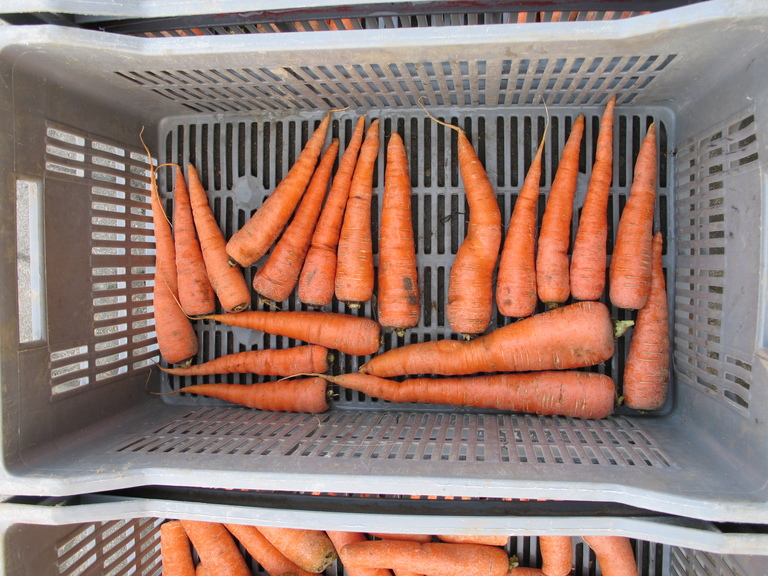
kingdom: Plantae
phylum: Tracheophyta
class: Magnoliopsida
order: Apiales
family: Apiaceae
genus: Daucus
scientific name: Daucus carota
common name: Wild carrot
